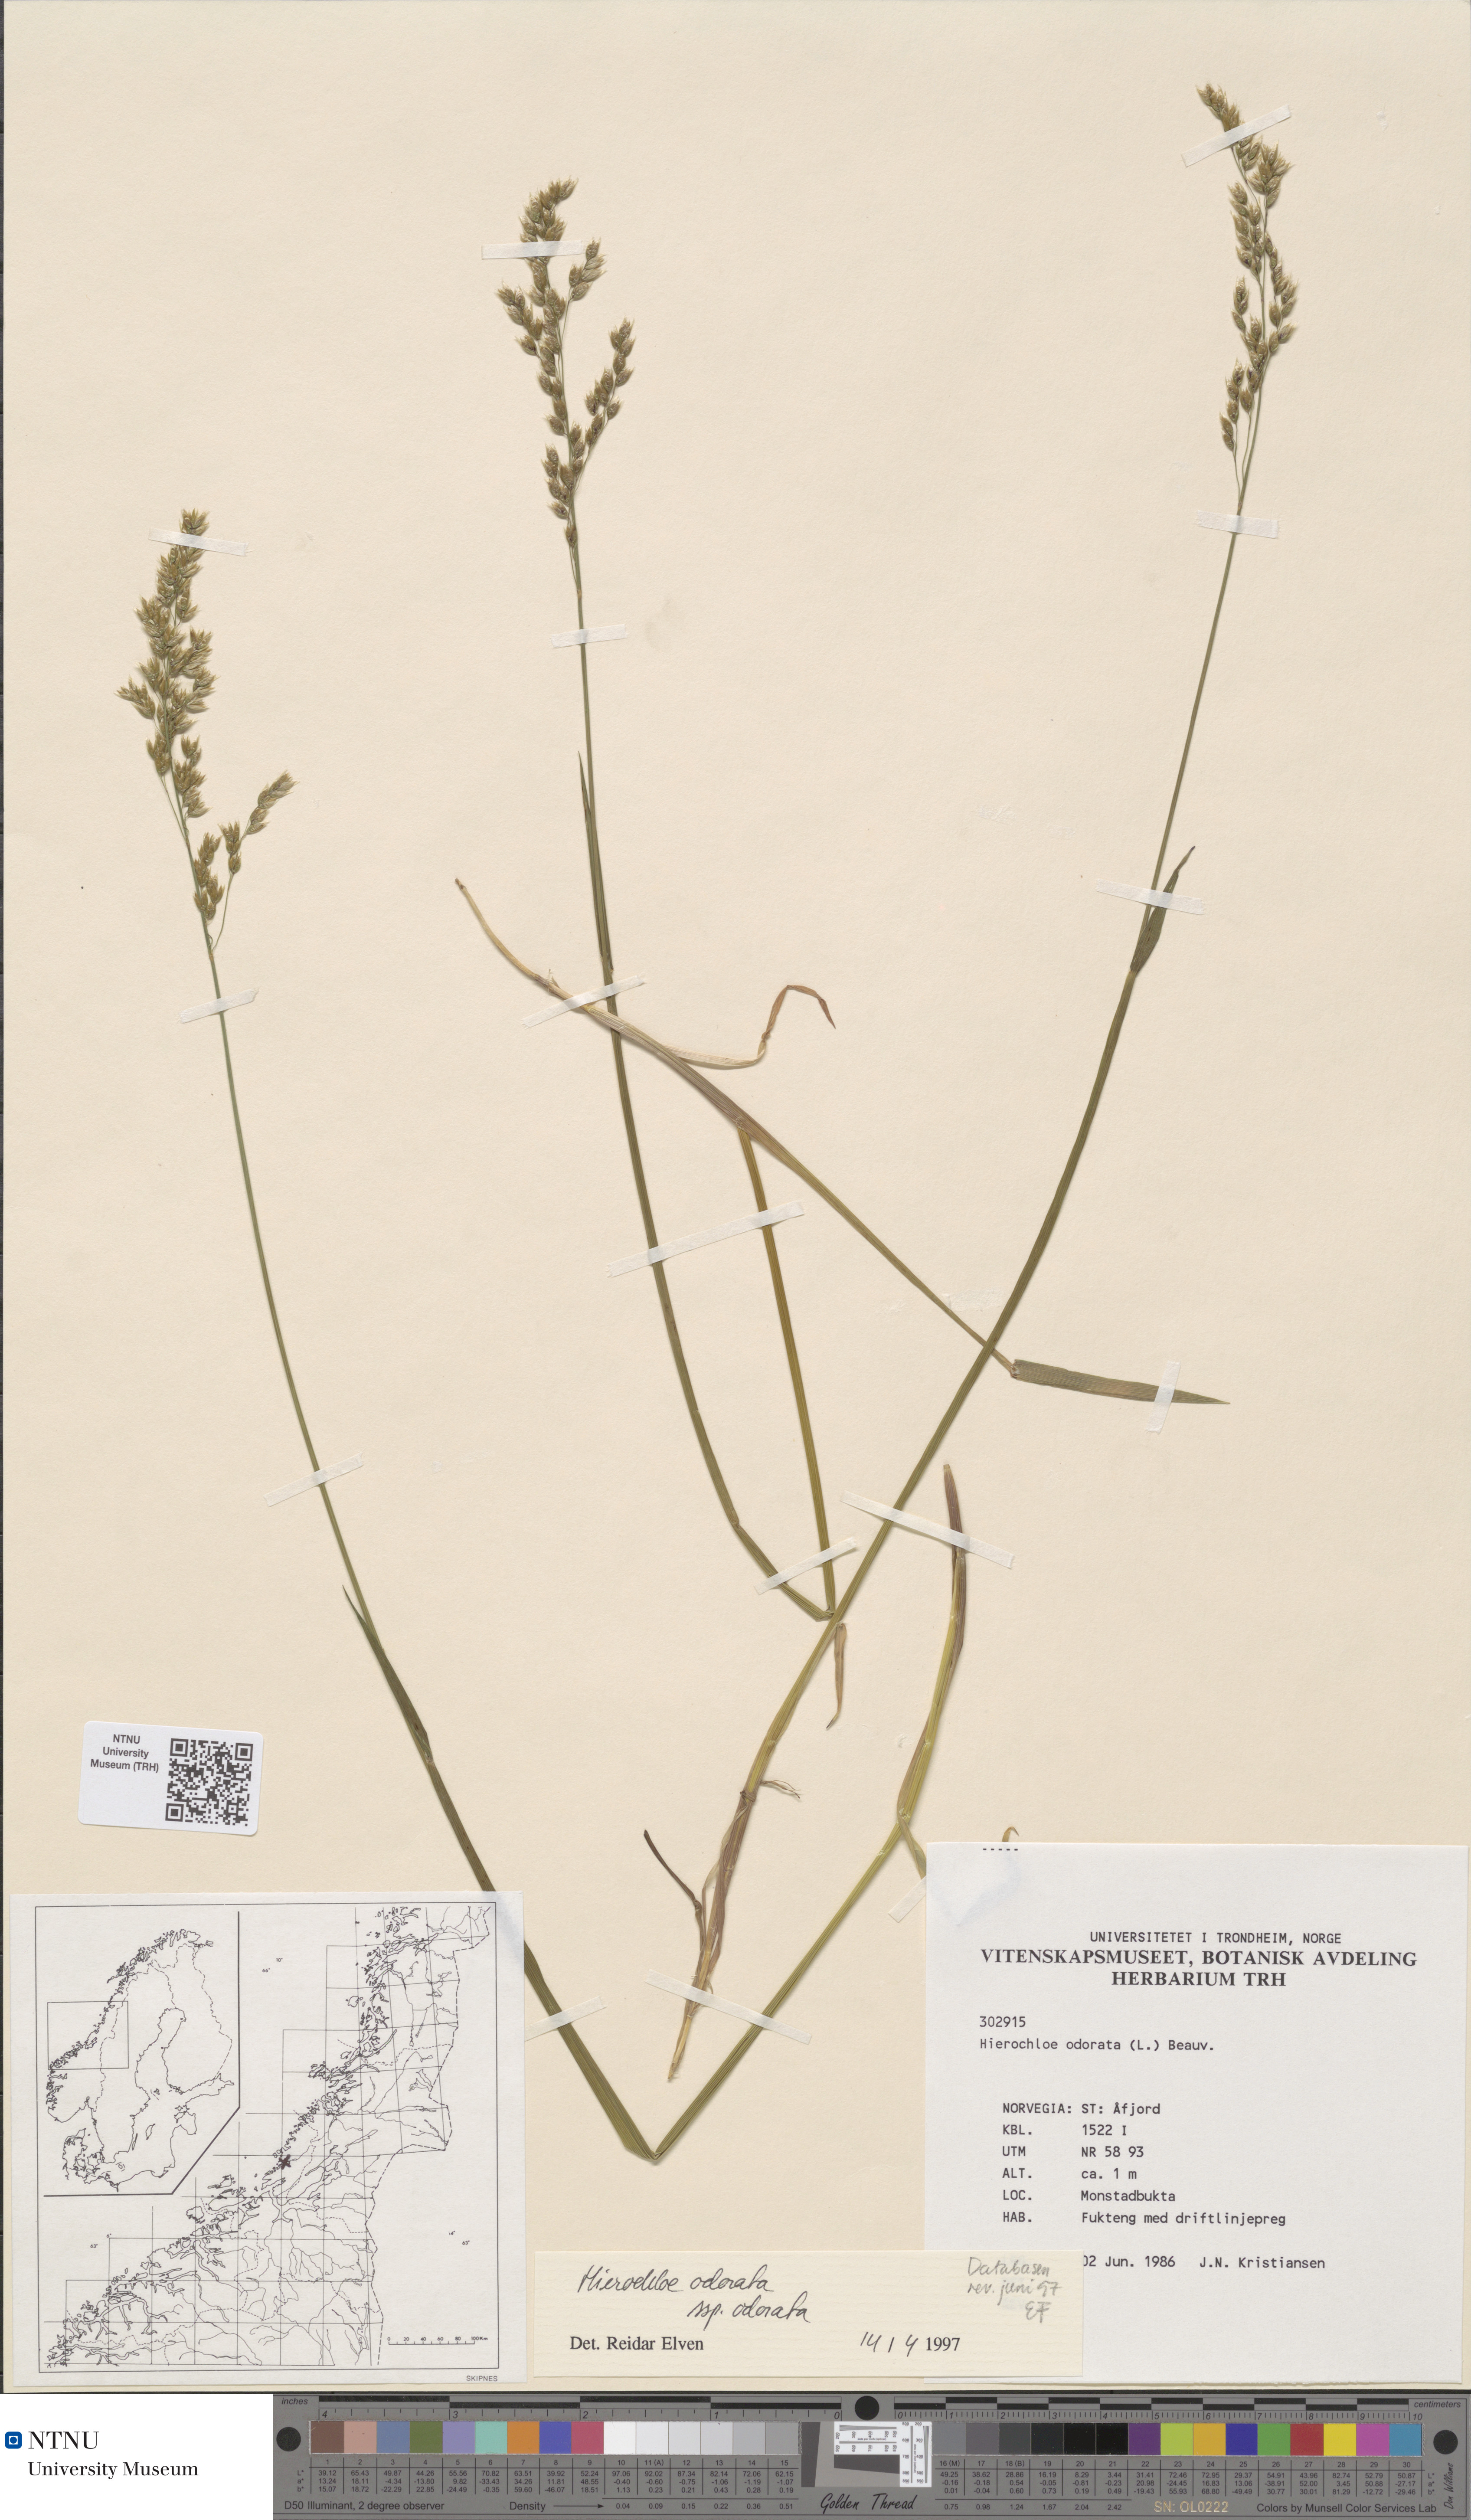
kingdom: Plantae
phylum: Tracheophyta
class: Liliopsida
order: Poales
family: Poaceae
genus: Anthoxanthum
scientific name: Anthoxanthum nitens
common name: Holy grass
